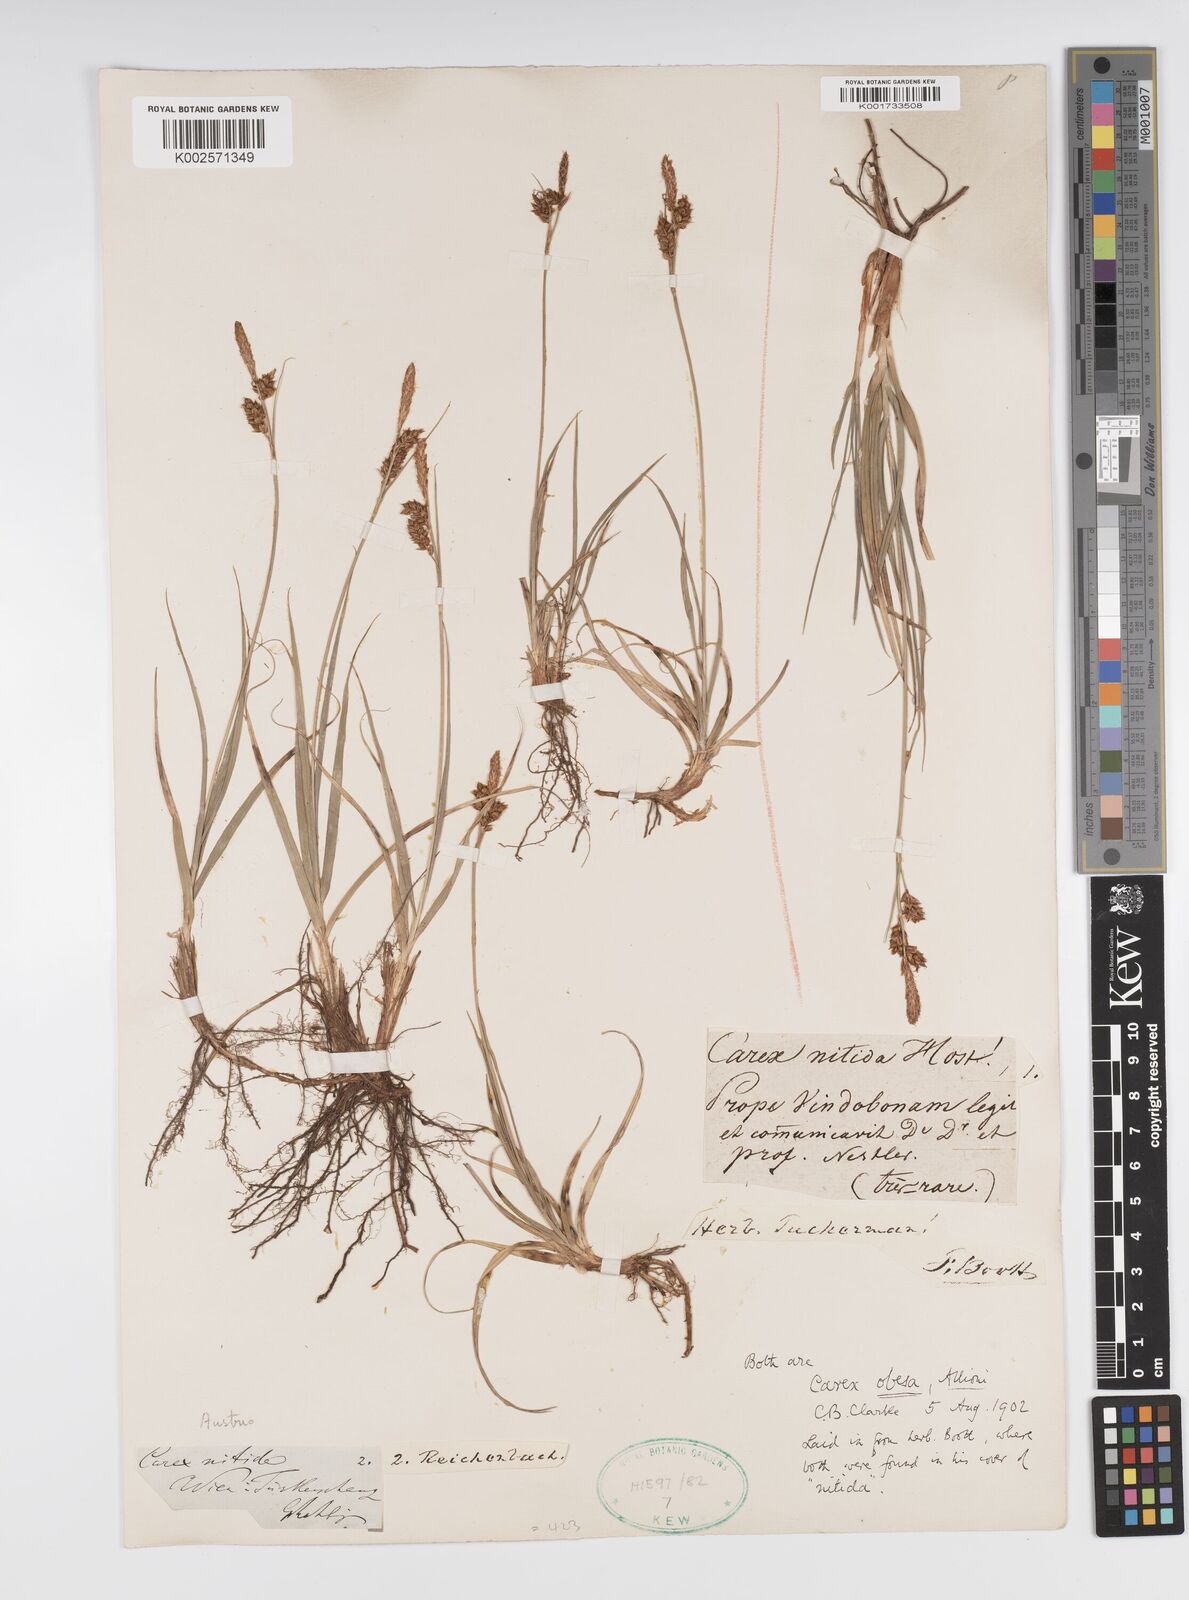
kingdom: Plantae
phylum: Tracheophyta
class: Liliopsida
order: Poales
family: Cyperaceae
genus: Carex
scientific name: Carex liparocarpos
